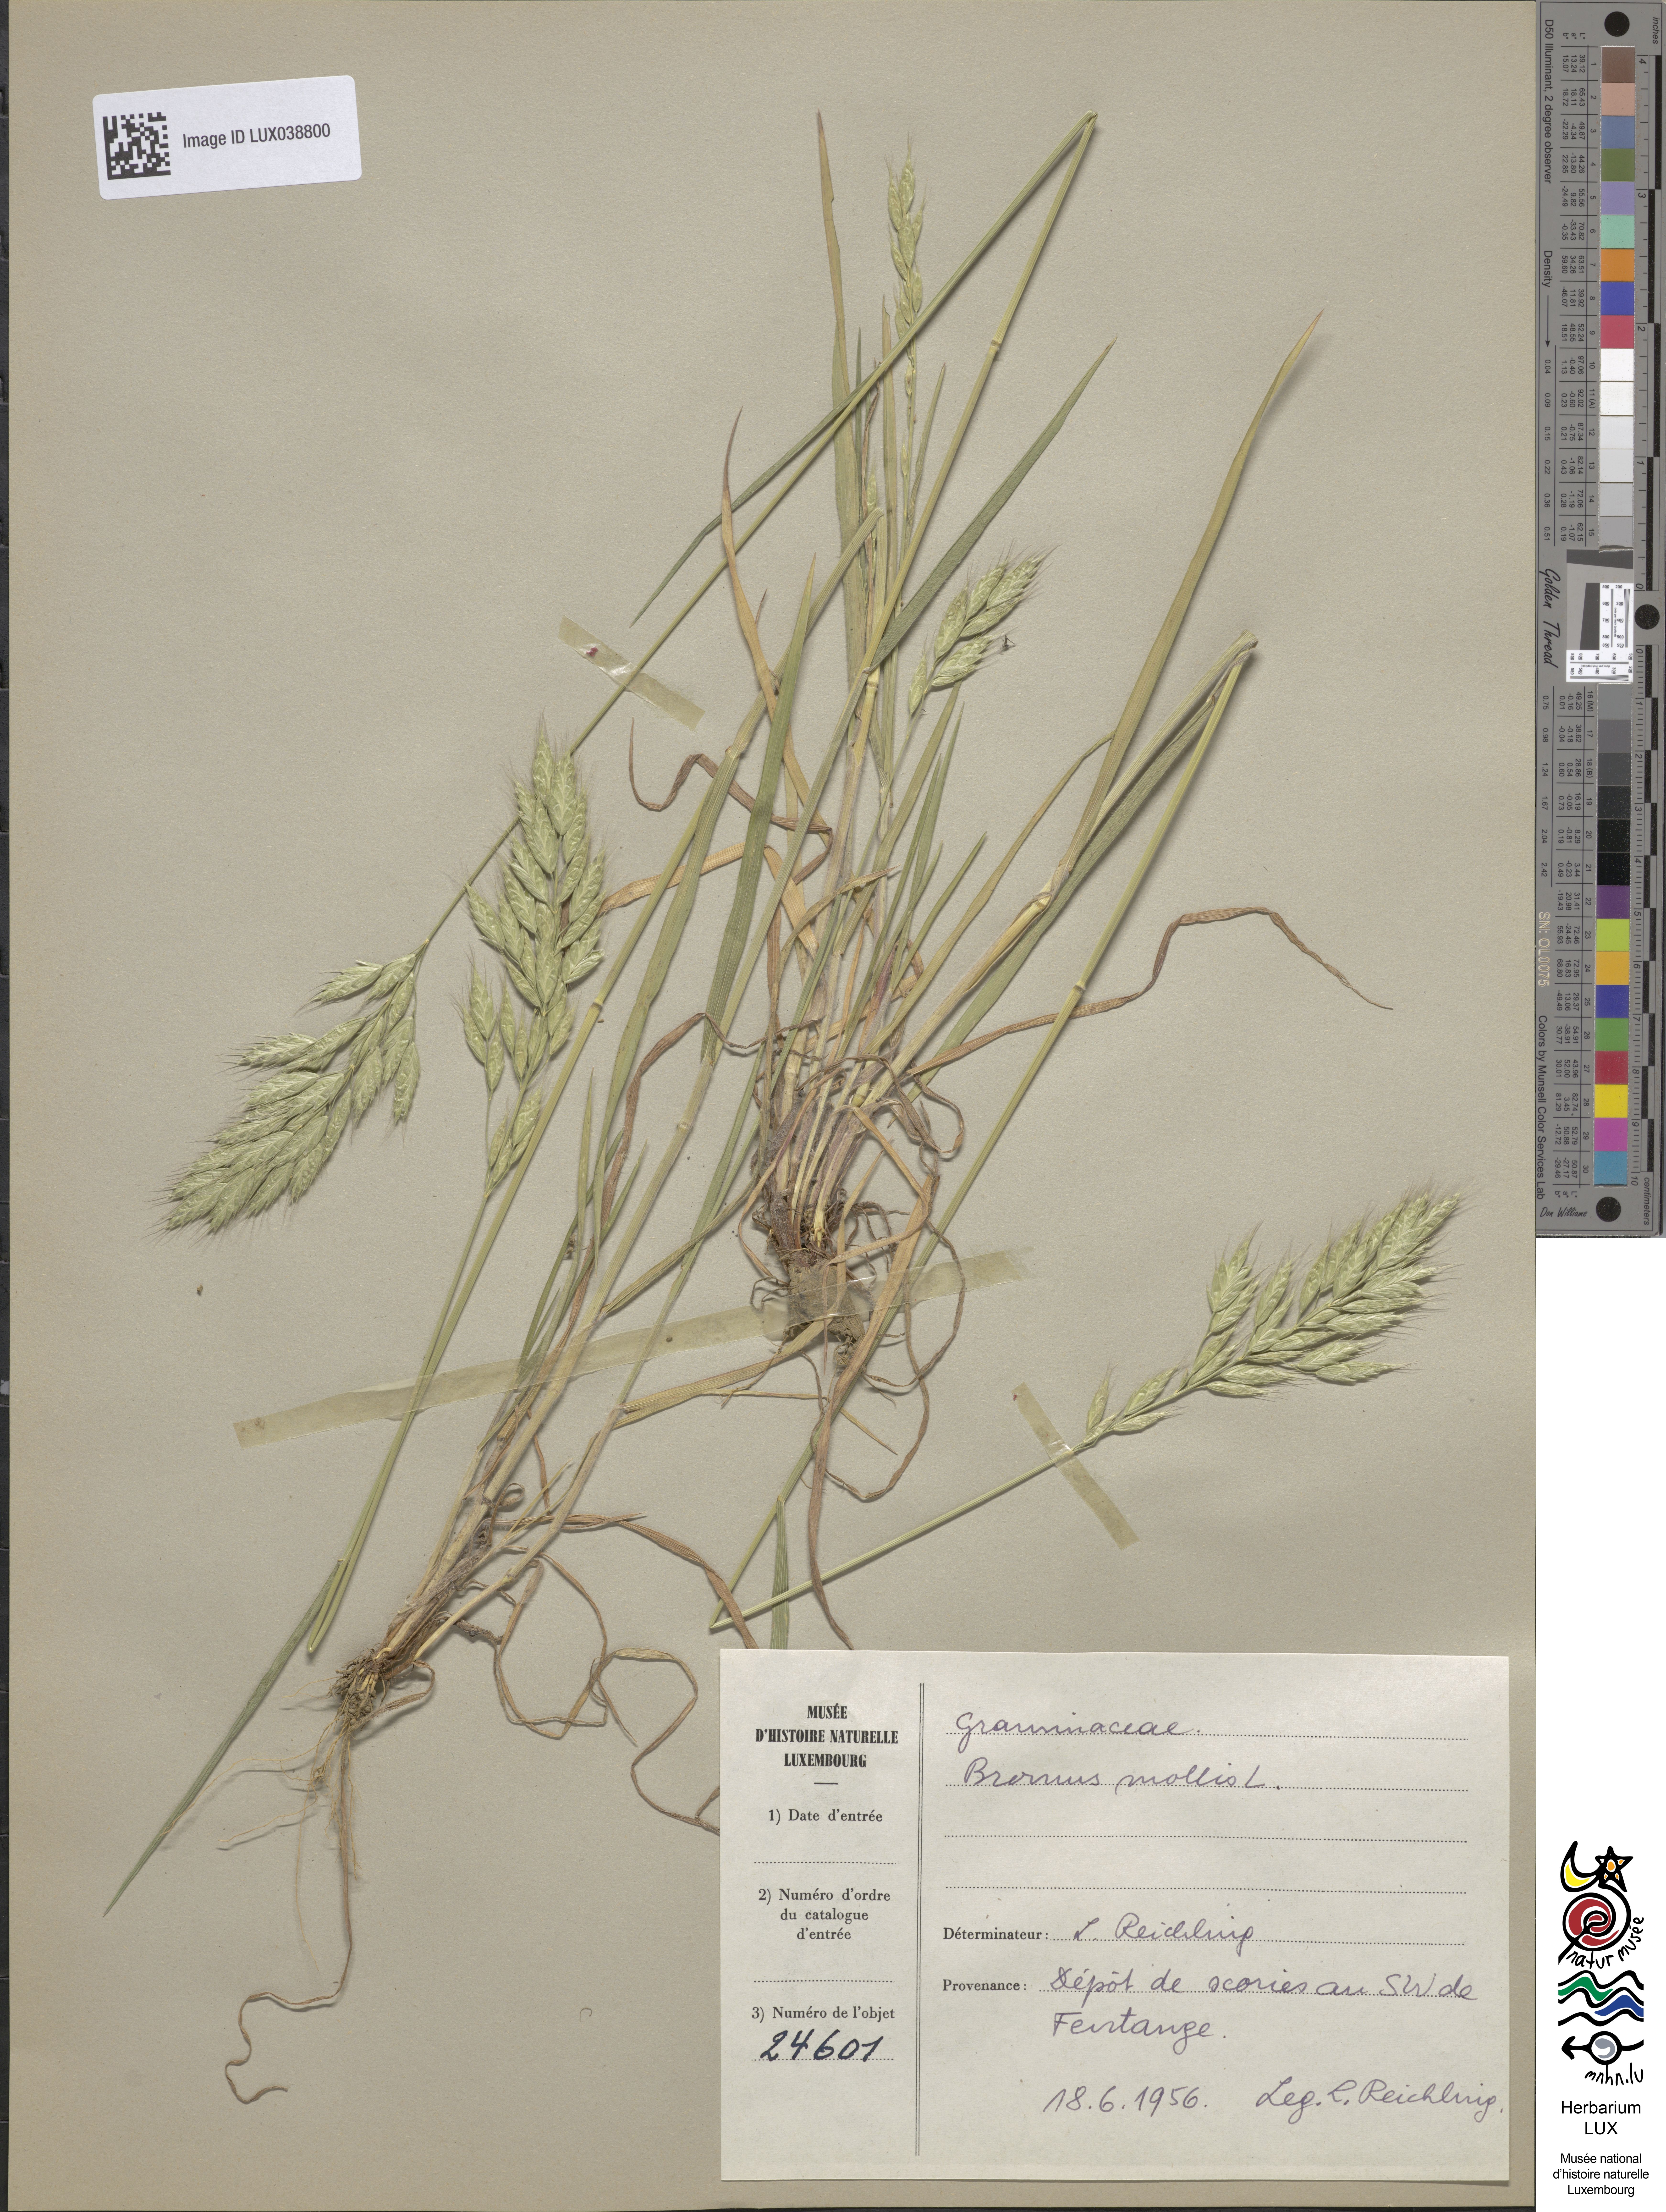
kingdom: Plantae
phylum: Tracheophyta
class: Liliopsida
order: Poales
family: Poaceae
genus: Bromus
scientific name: Bromus hordeaceus
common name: Soft brome
